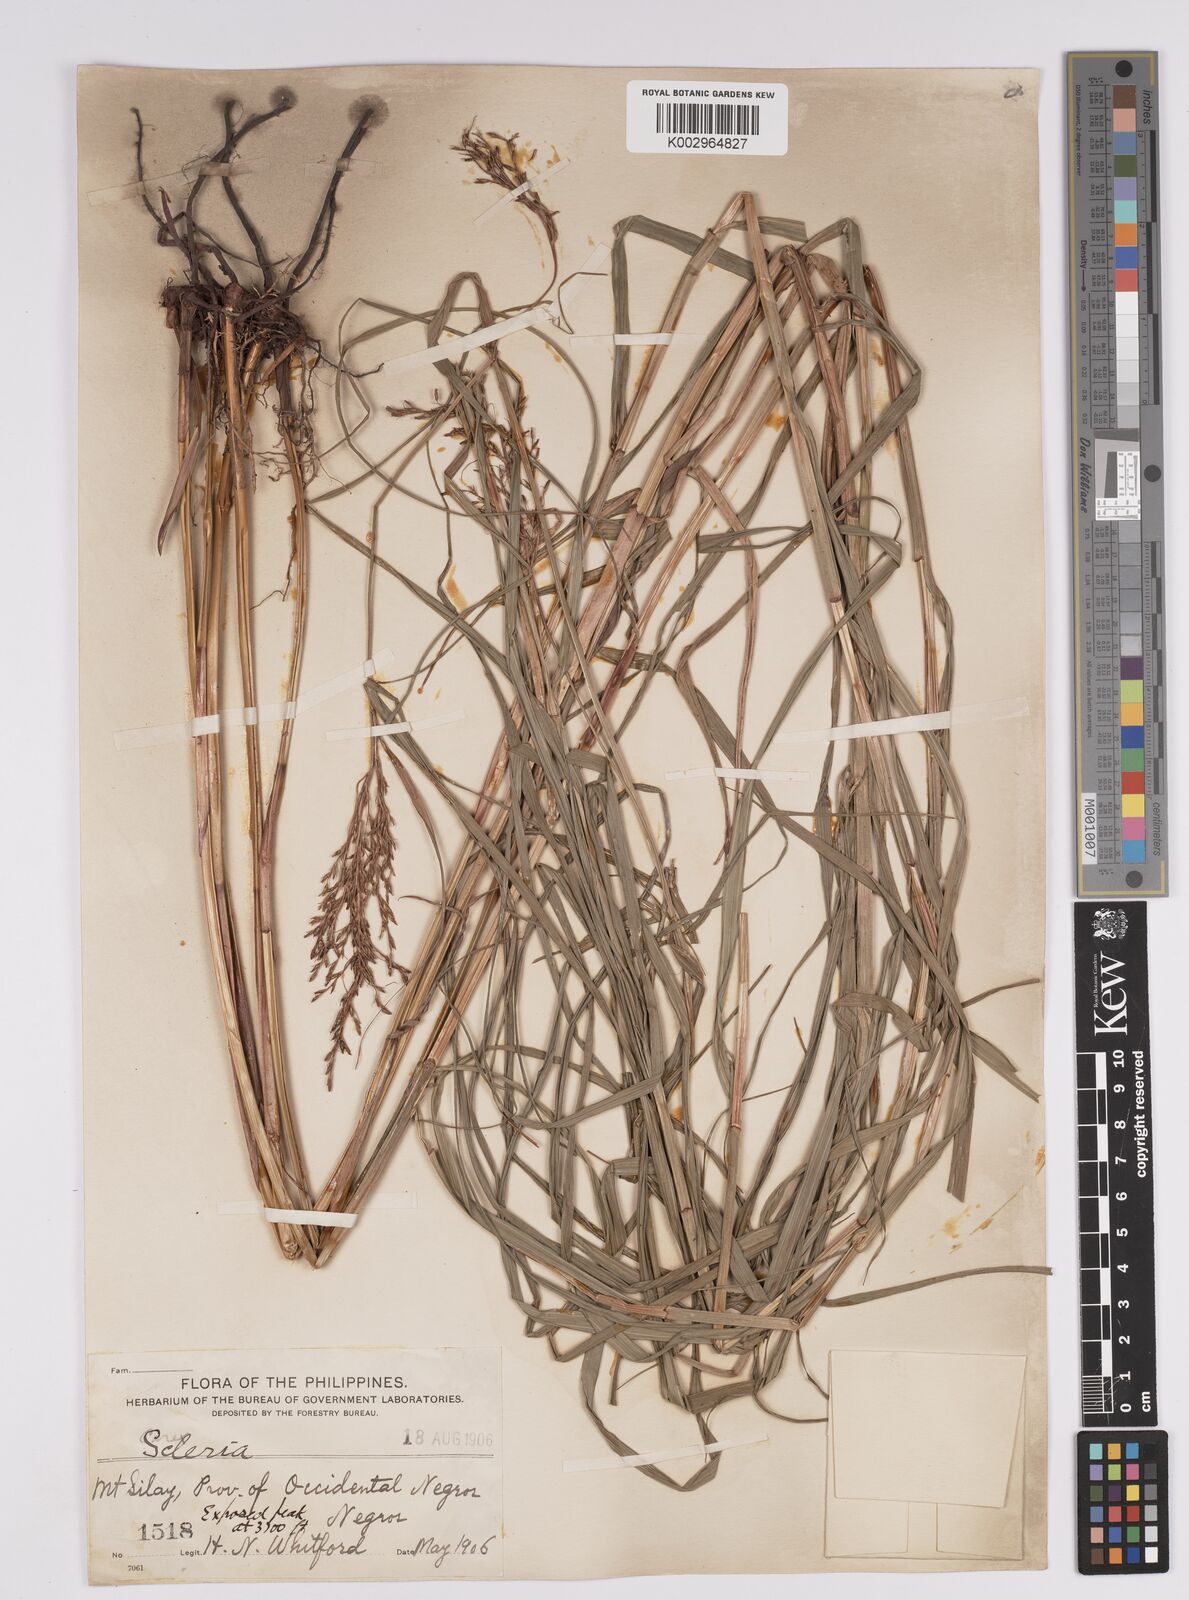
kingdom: Plantae
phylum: Tracheophyta
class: Liliopsida
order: Poales
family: Cyperaceae
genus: Scleria
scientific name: Scleria
